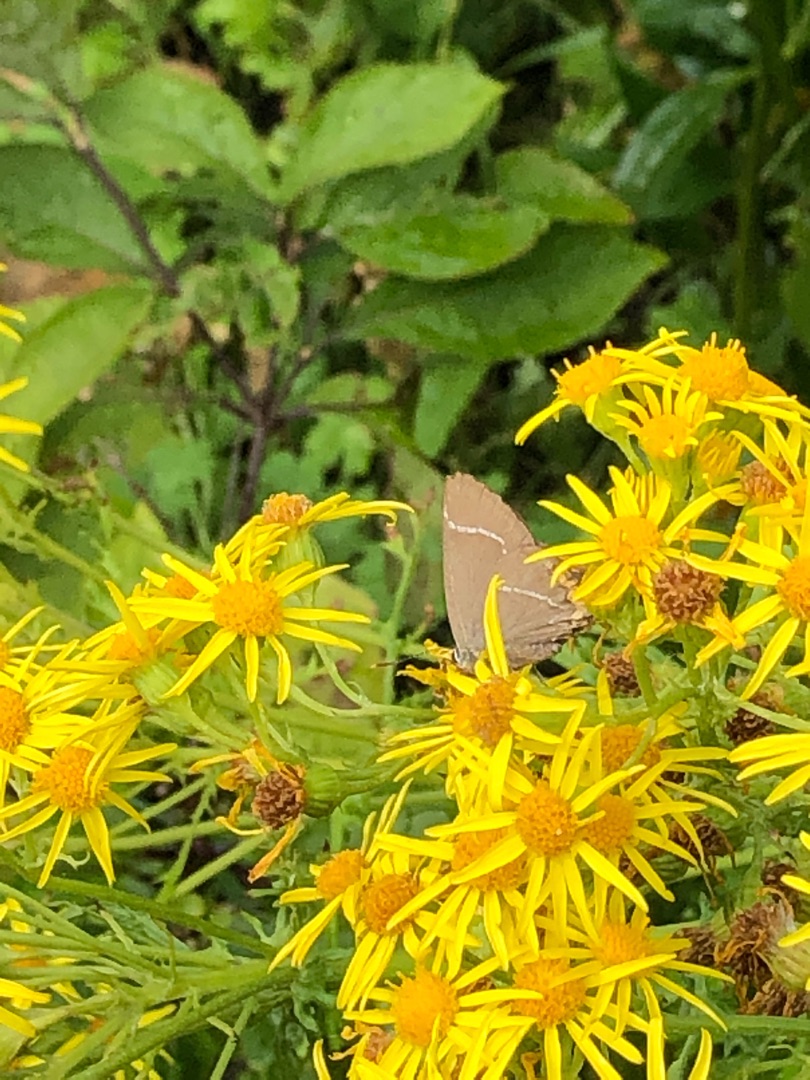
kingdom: Animalia
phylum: Arthropoda
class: Insecta
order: Lepidoptera
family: Lycaenidae
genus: Satyrium
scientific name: Satyrium w-album
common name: Det hvide W
